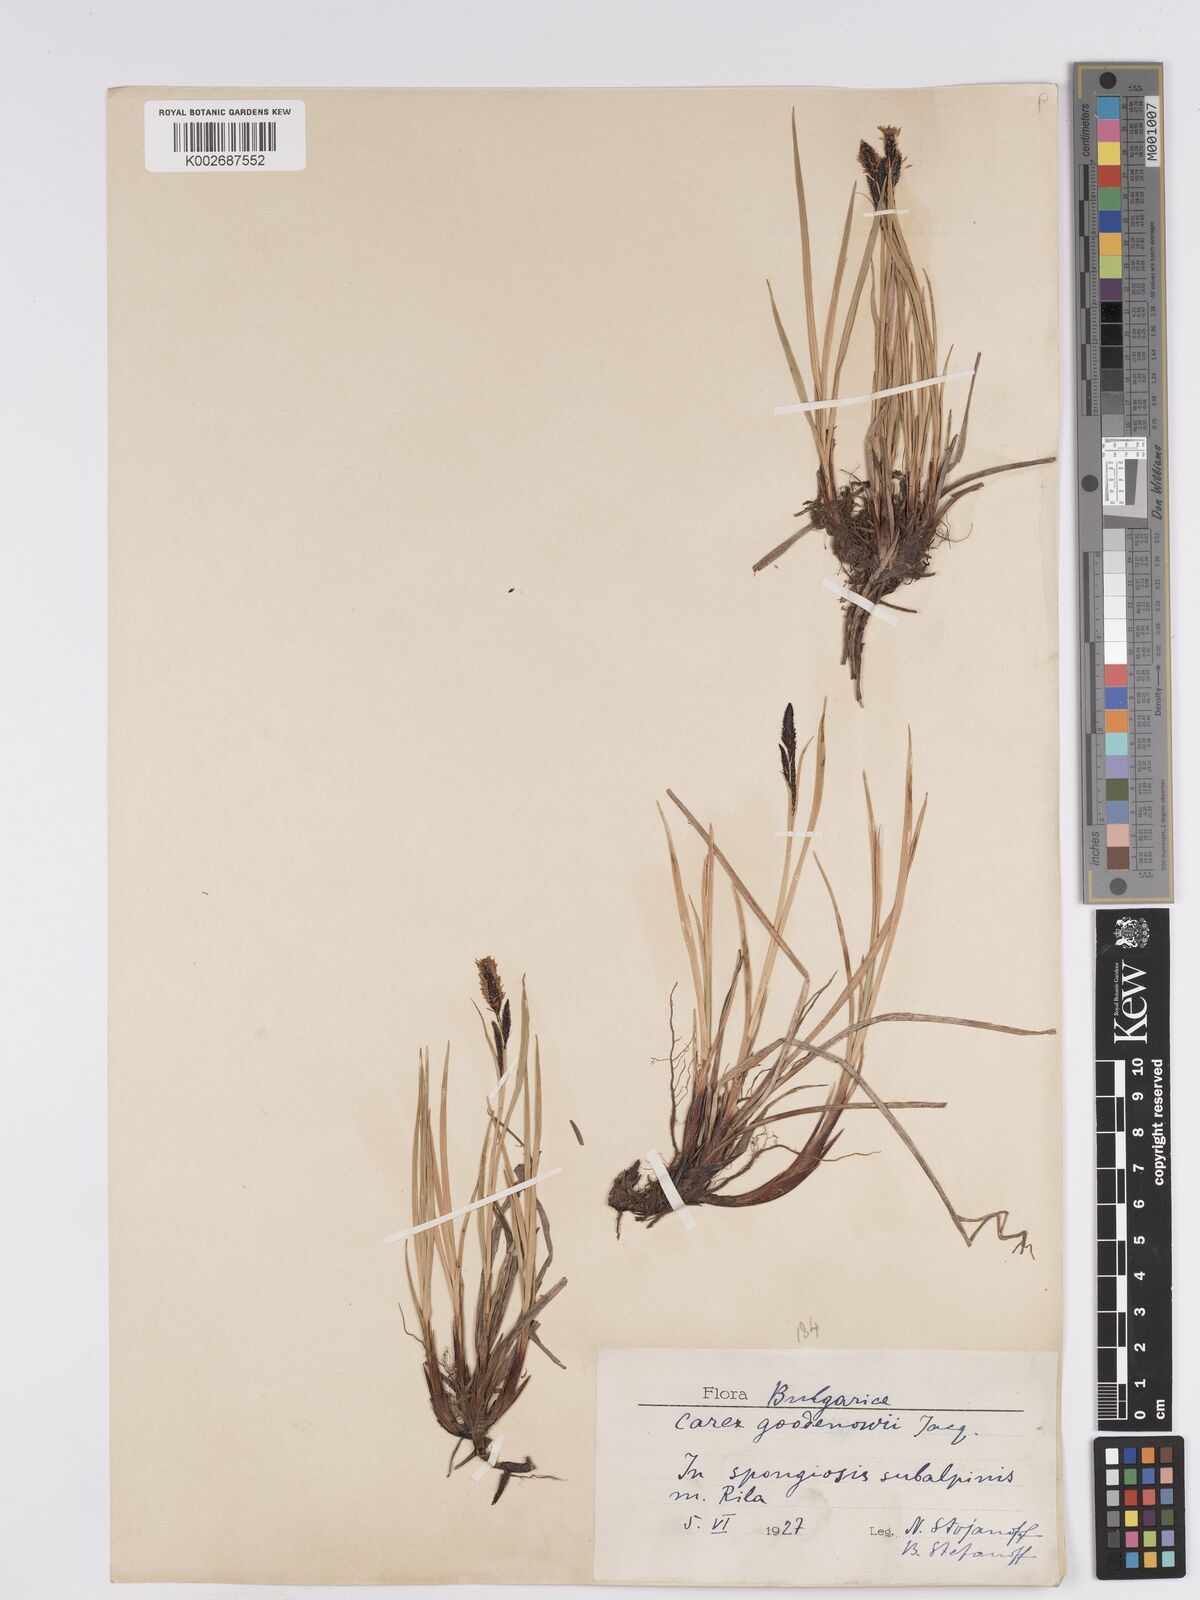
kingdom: Plantae
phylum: Tracheophyta
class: Liliopsida
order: Poales
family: Cyperaceae
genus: Carex
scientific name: Carex nigra
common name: Common sedge
